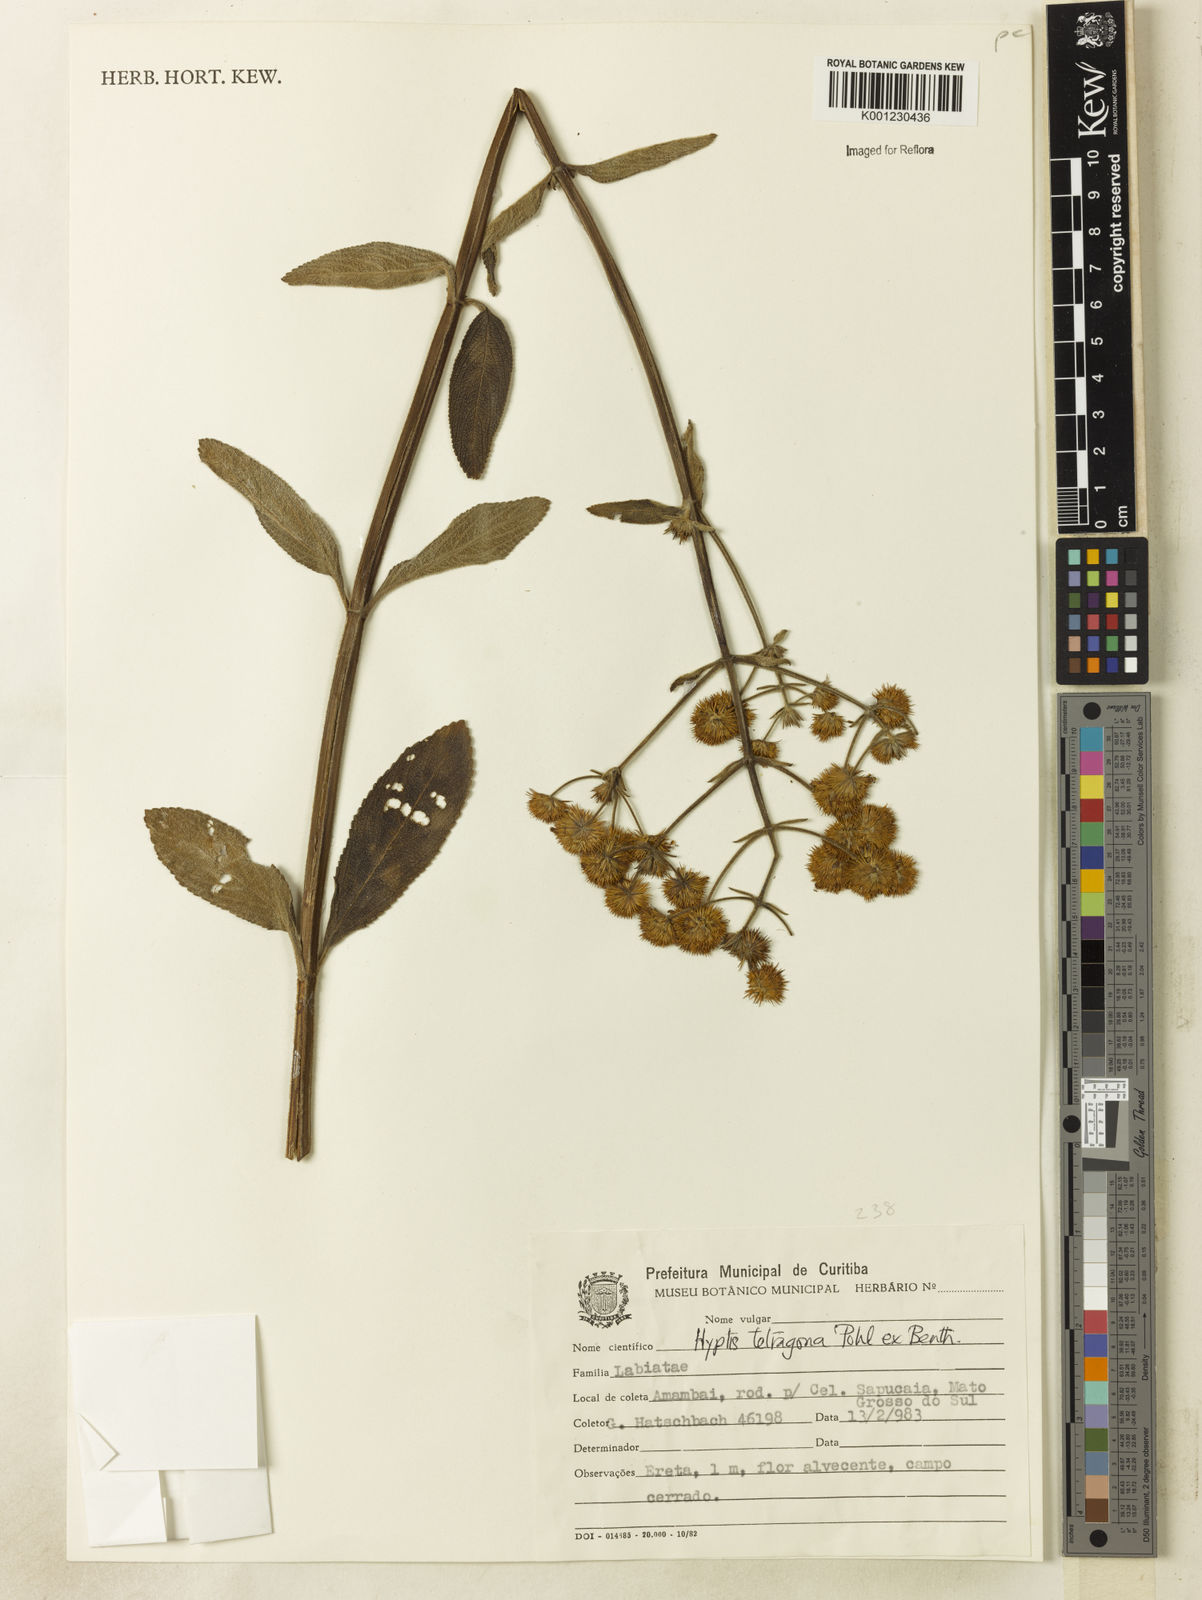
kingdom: Plantae
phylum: Tracheophyta
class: Magnoliopsida
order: Lamiales
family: Lamiaceae
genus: Hyptis
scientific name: Hyptis
